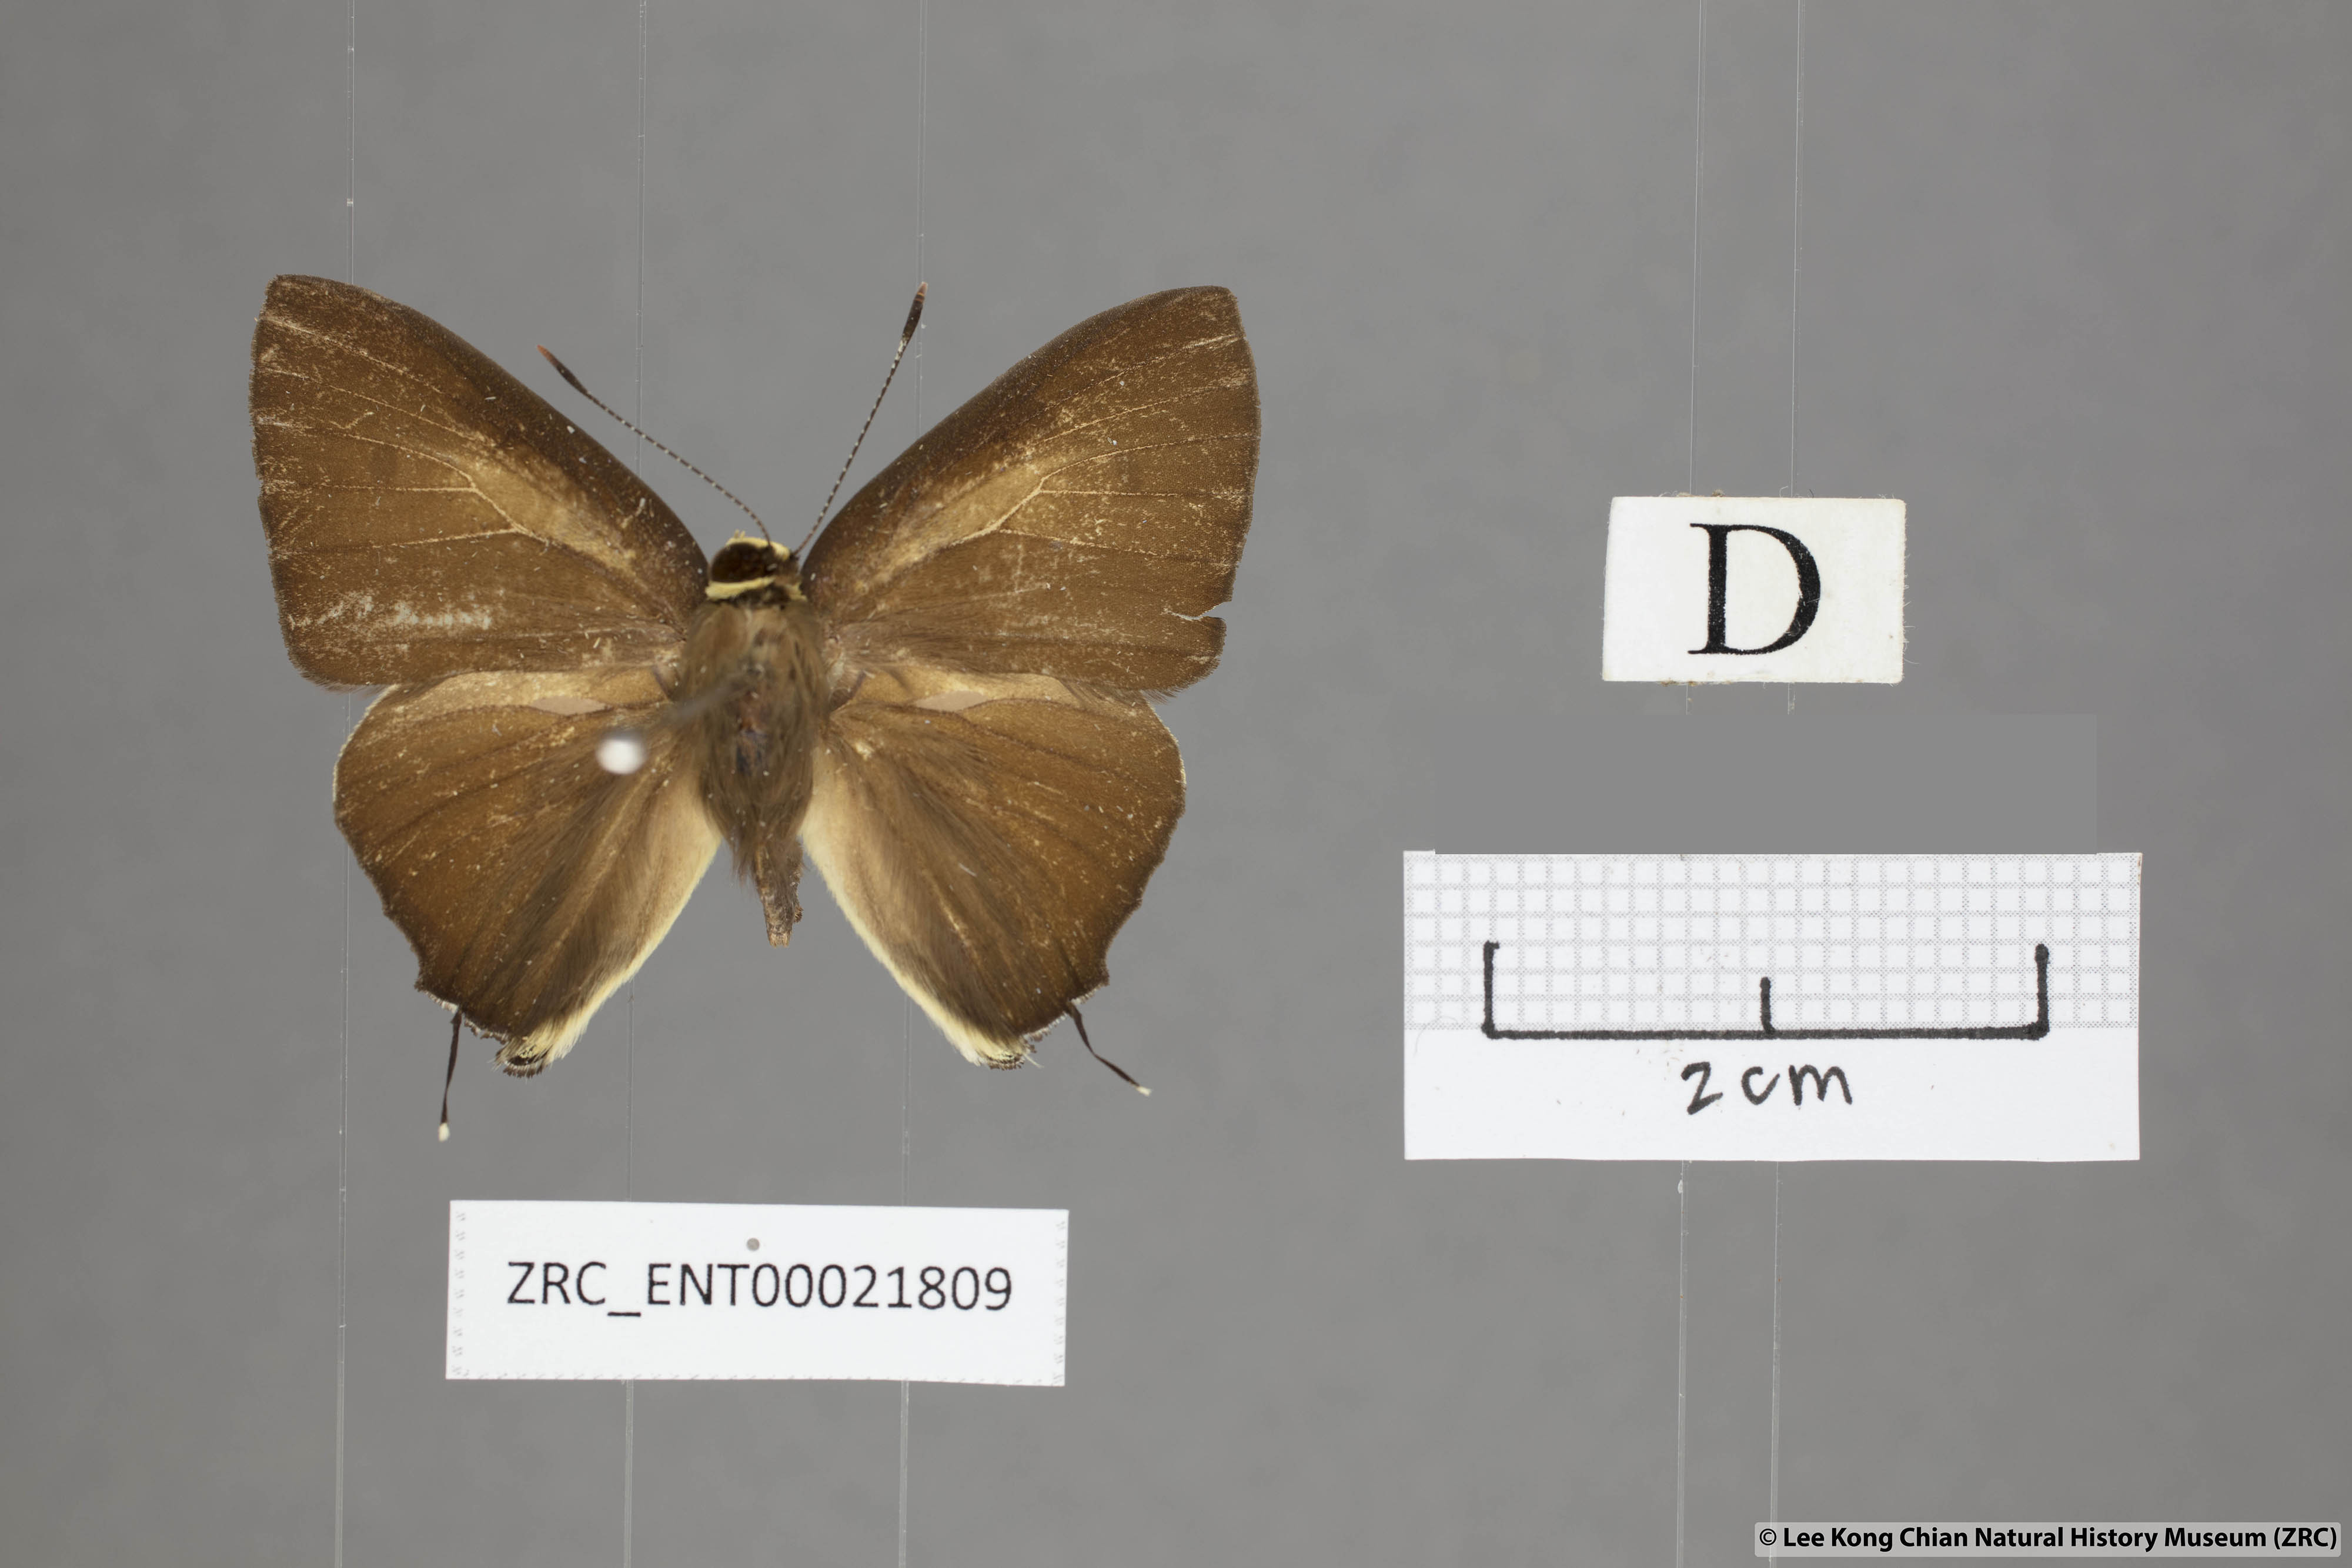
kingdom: Animalia
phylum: Arthropoda
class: Insecta
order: Lepidoptera
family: Lycaenidae
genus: Rapala
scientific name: Rapala domitia
